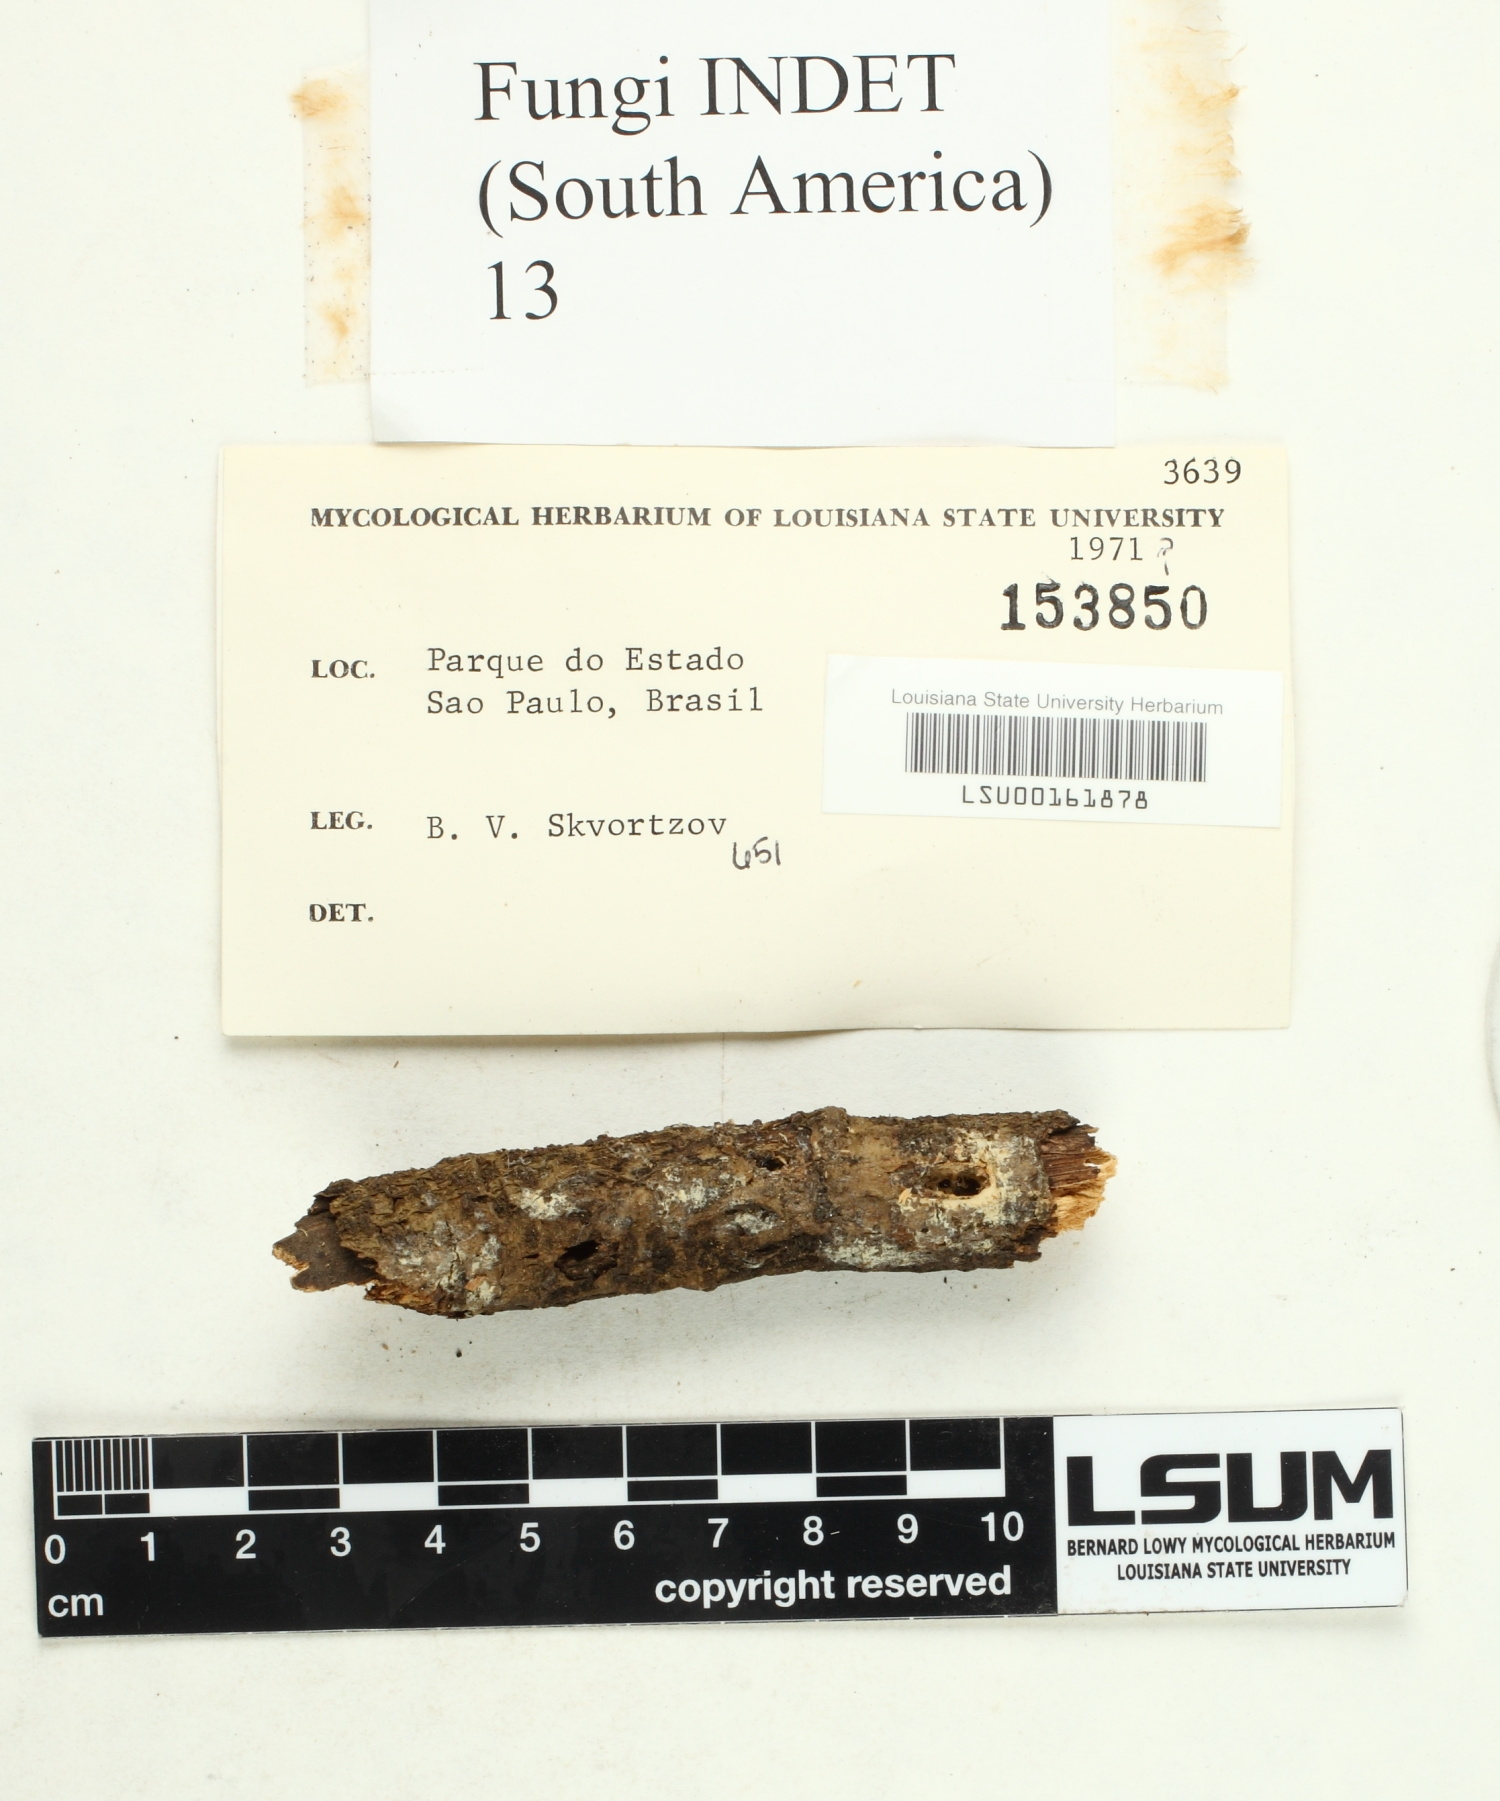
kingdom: Fungi
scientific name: Fungi
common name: Fungi
